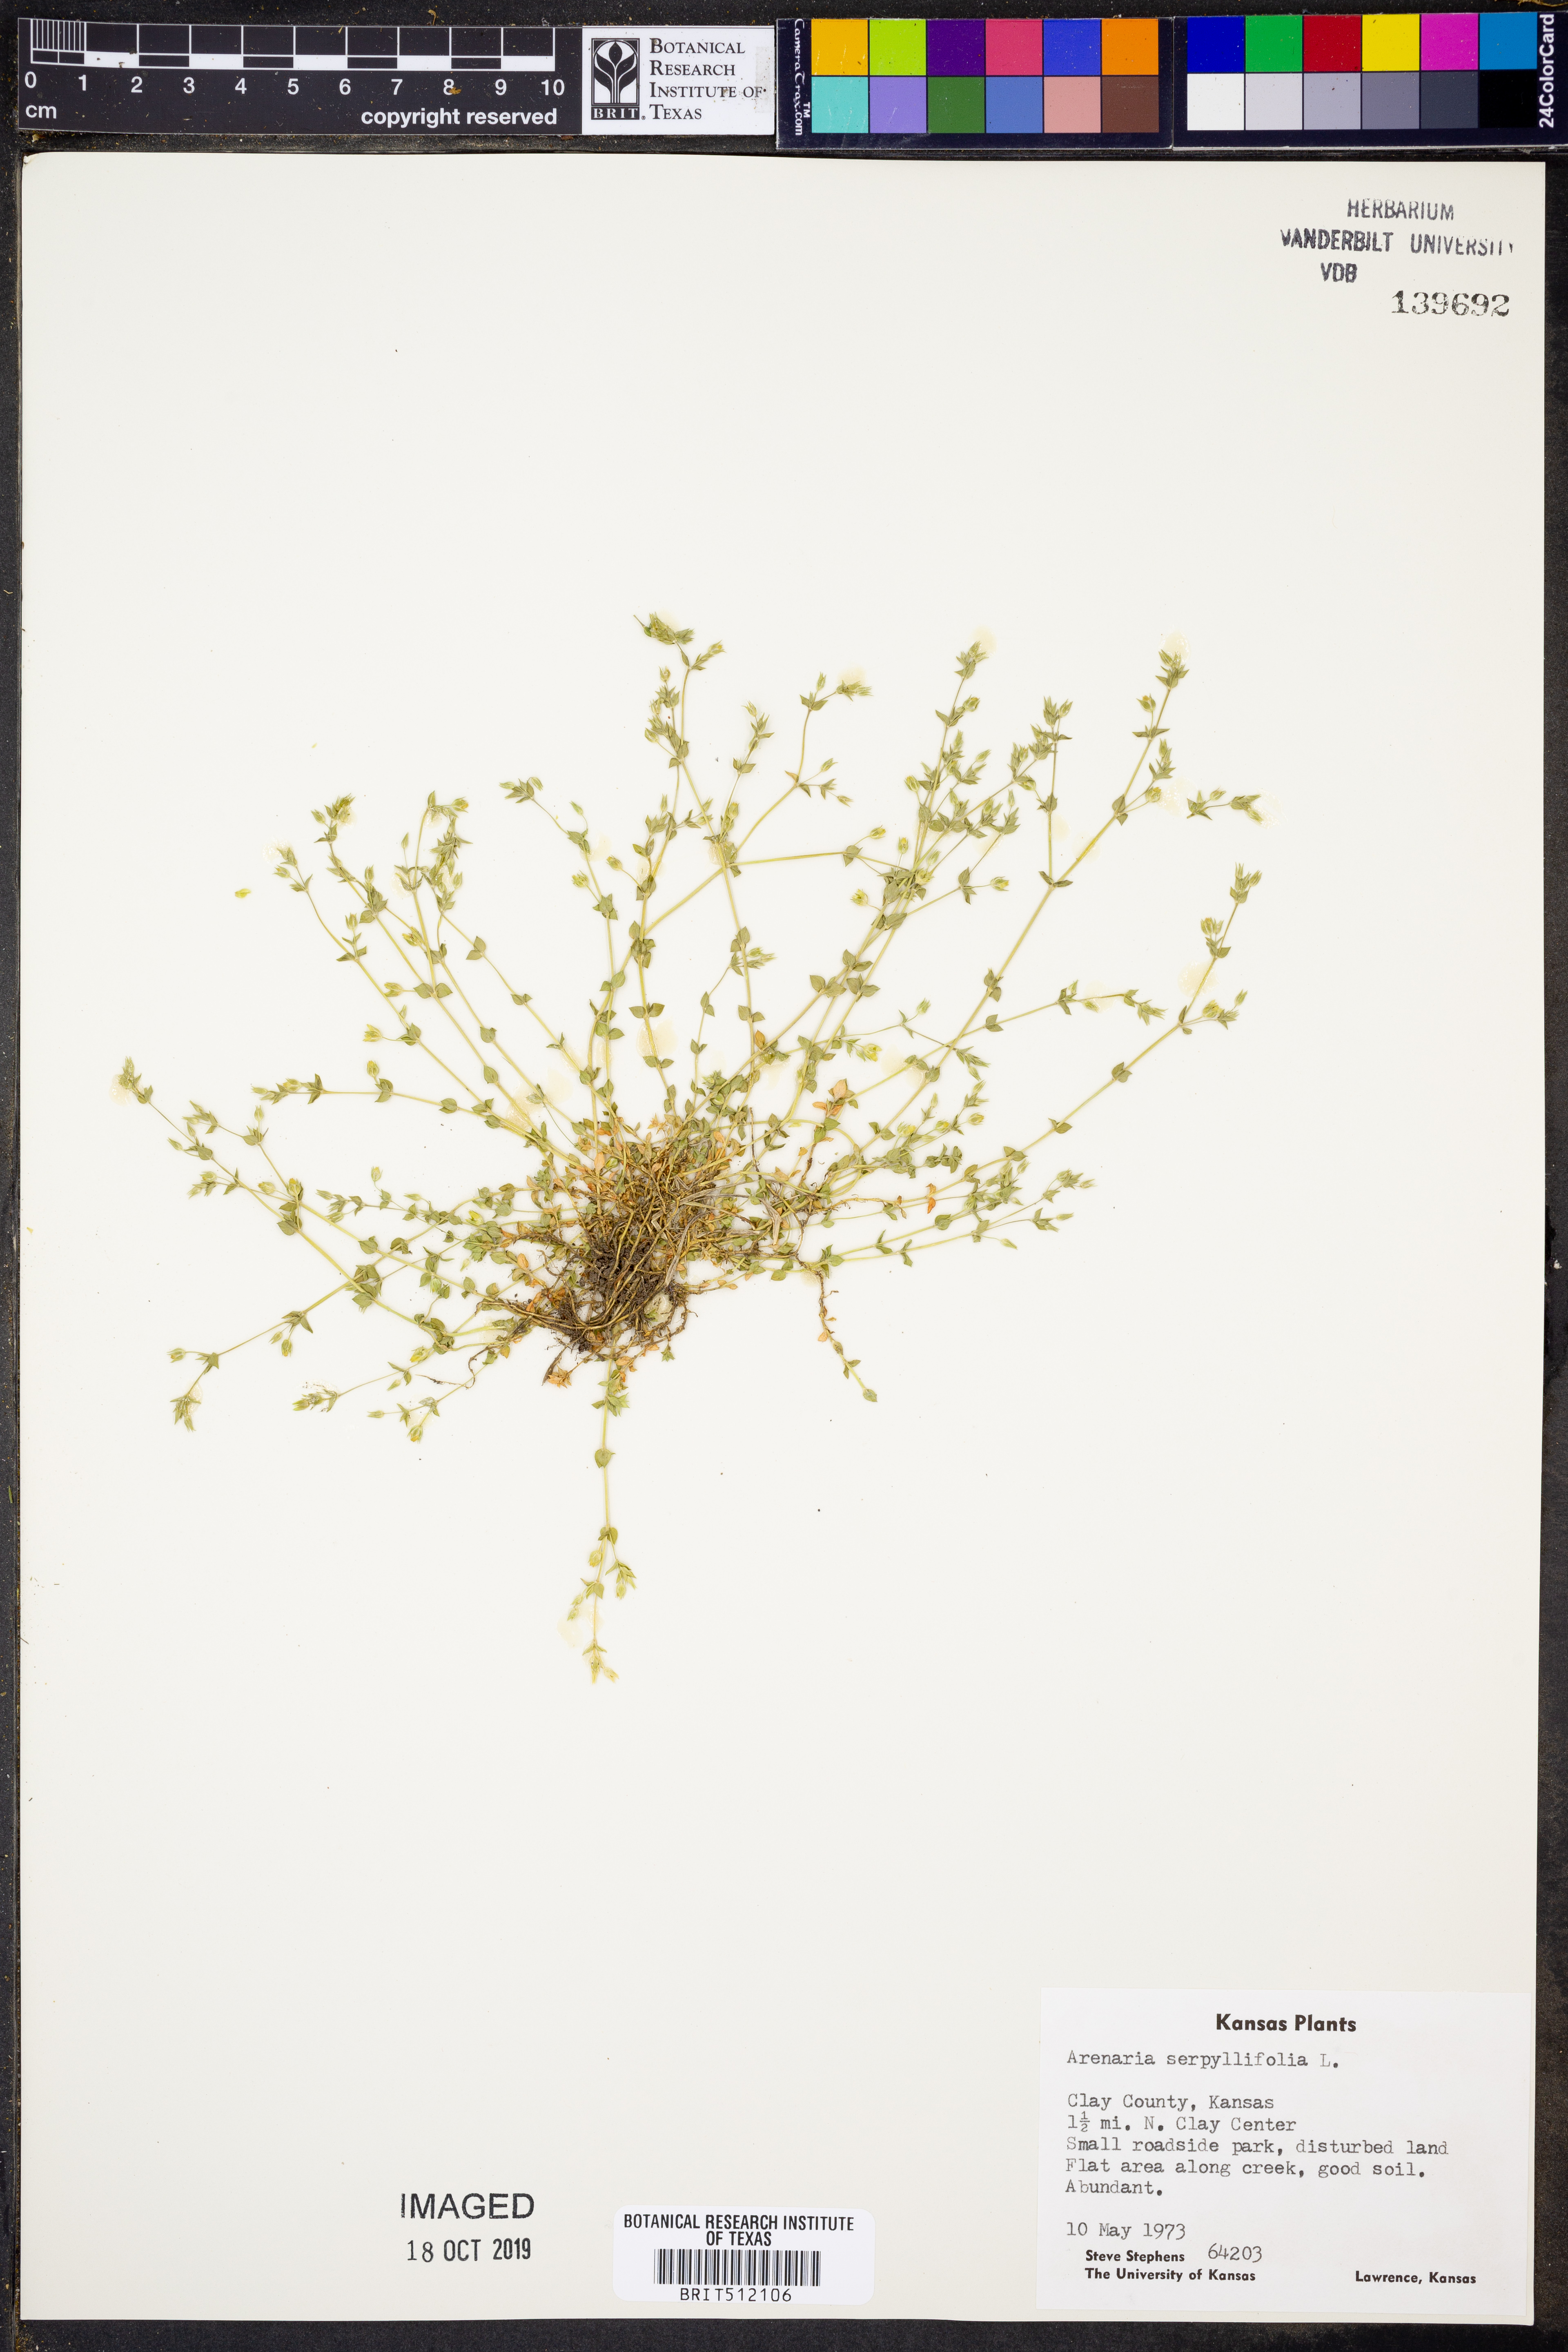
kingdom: Plantae
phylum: Tracheophyta
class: Magnoliopsida
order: Caryophyllales
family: Caryophyllaceae
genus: Arenaria
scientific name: Arenaria serpyllifolia
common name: Thyme-leaved sandwort
